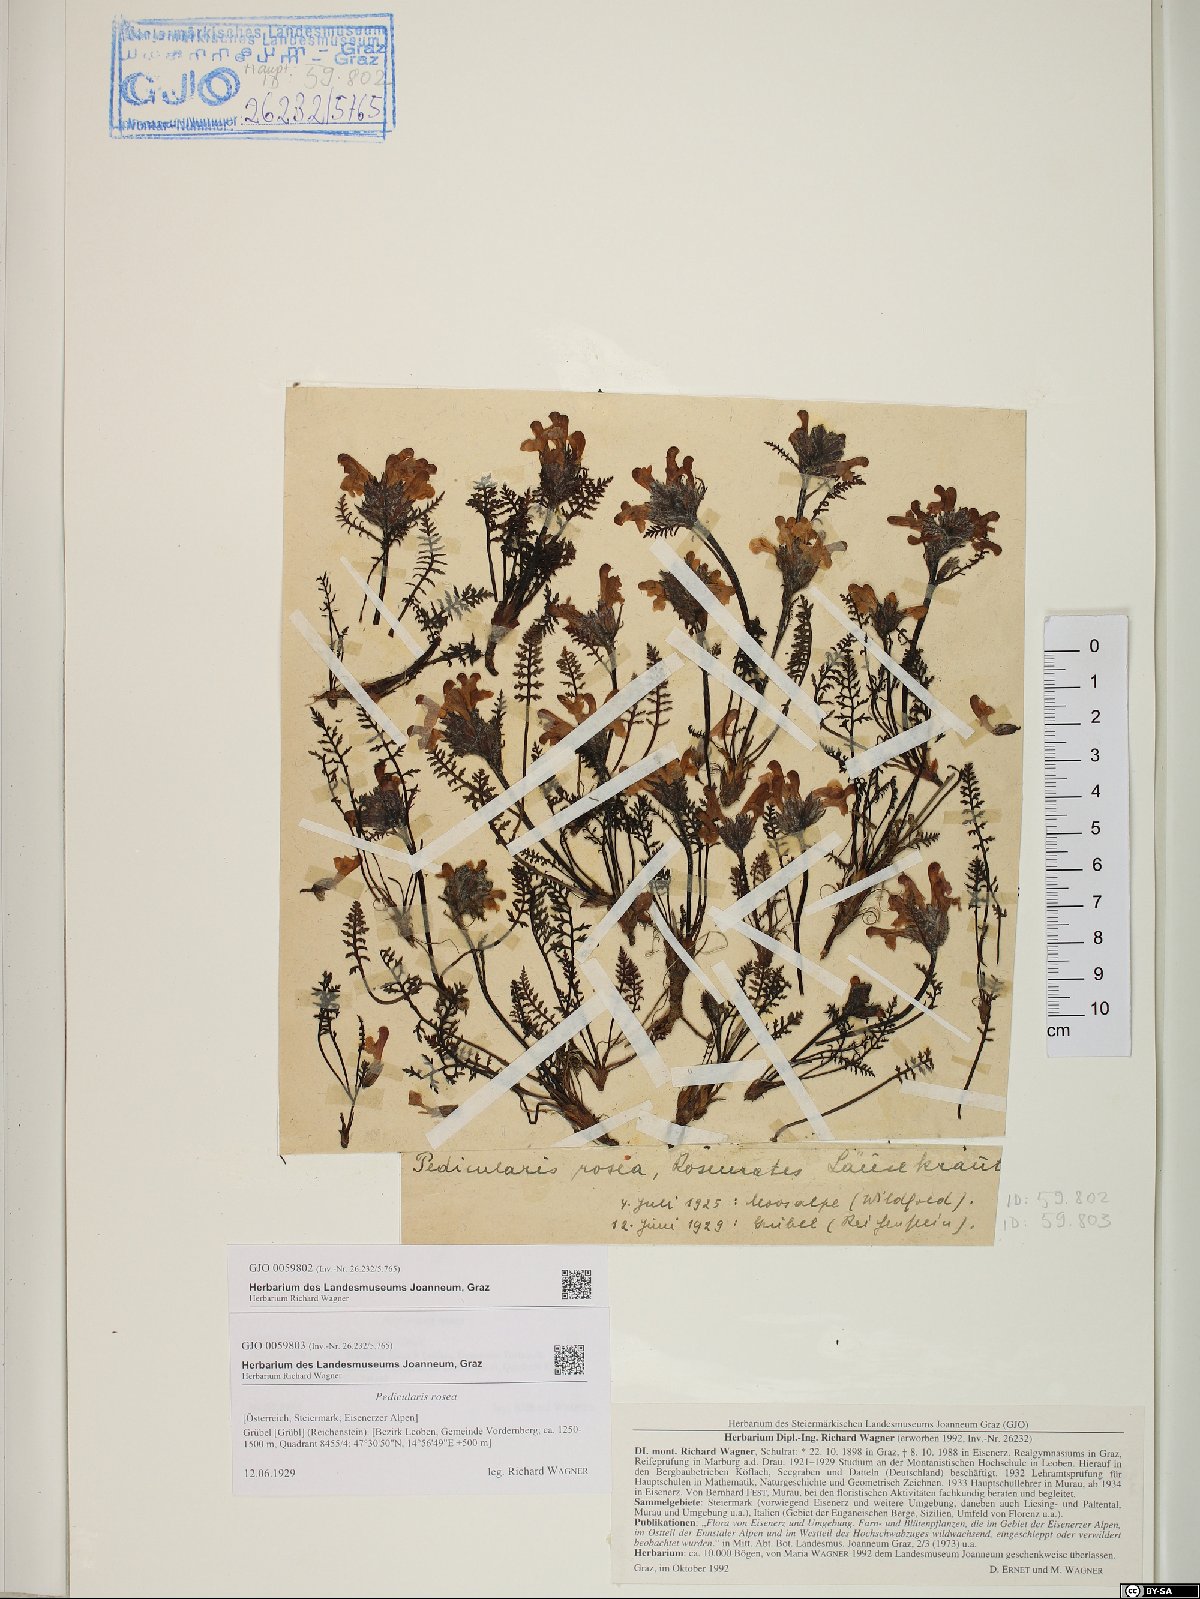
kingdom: Plantae
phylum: Tracheophyta
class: Magnoliopsida
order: Lamiales
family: Orobanchaceae
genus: Pedicularis
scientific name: Pedicularis rosea
